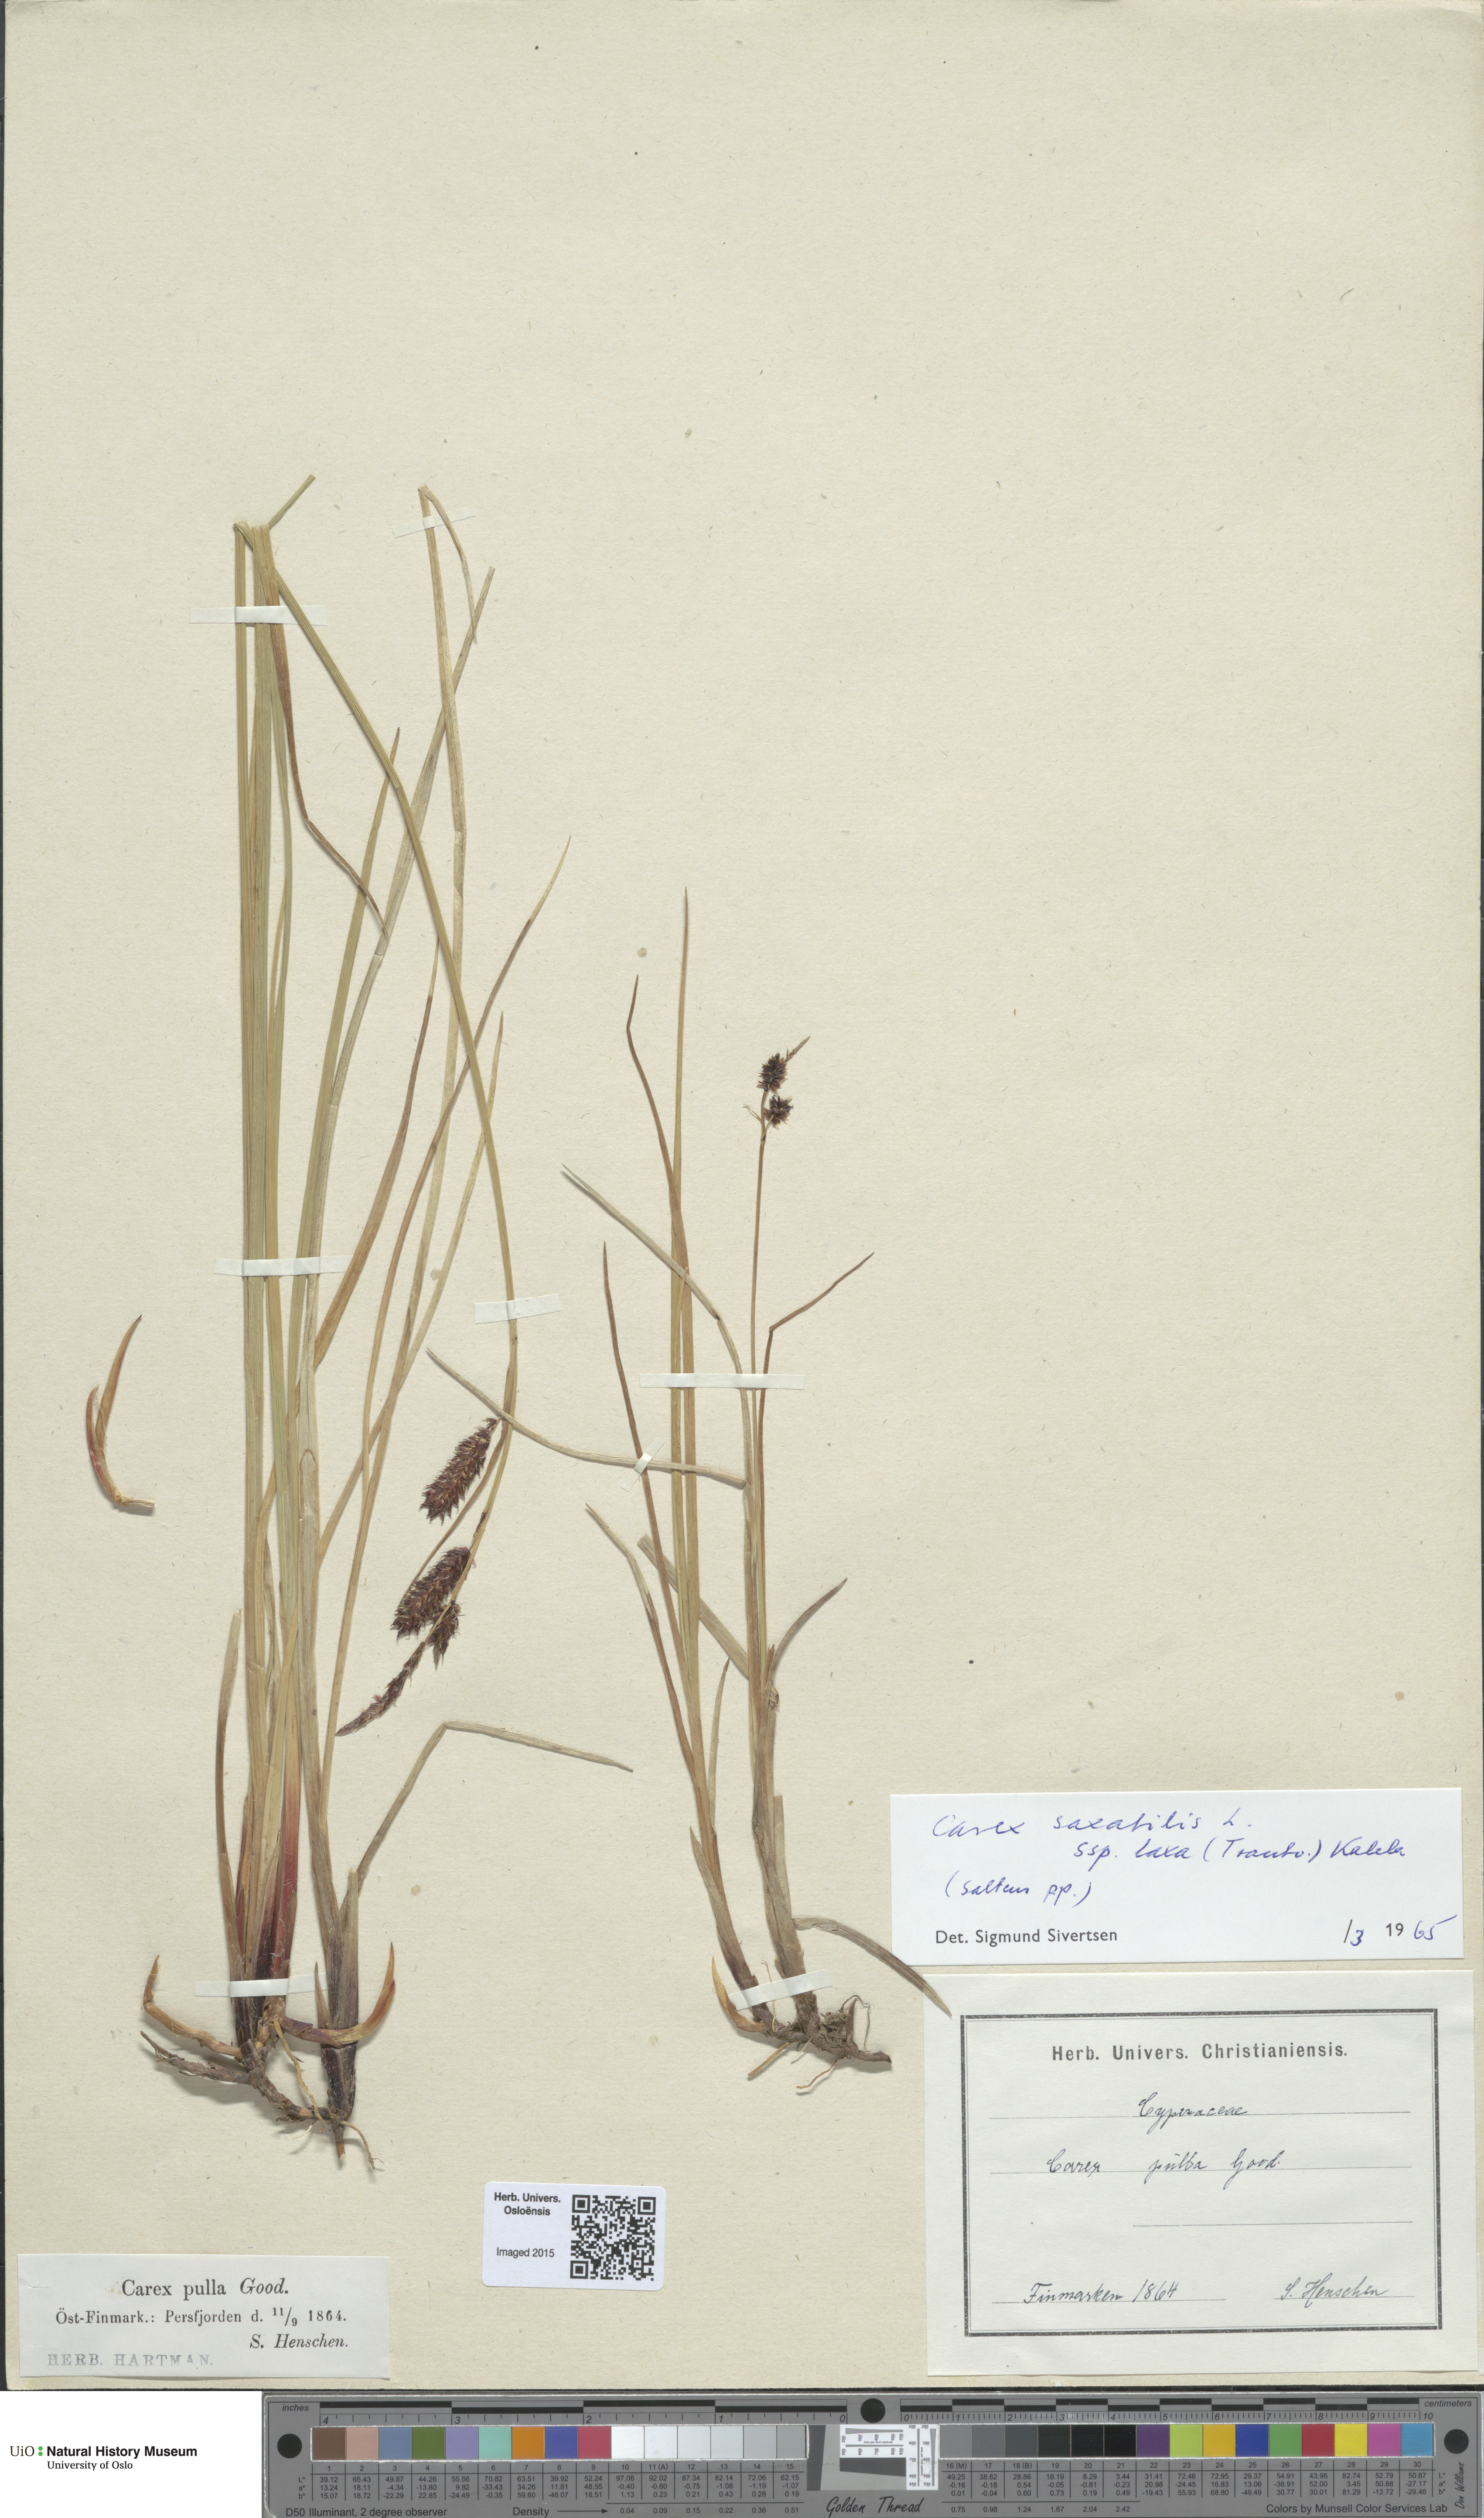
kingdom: Plantae
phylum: Tracheophyta
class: Liliopsida
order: Poales
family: Cyperaceae
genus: Carex
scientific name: Carex saxatilis
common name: Russet sedge
